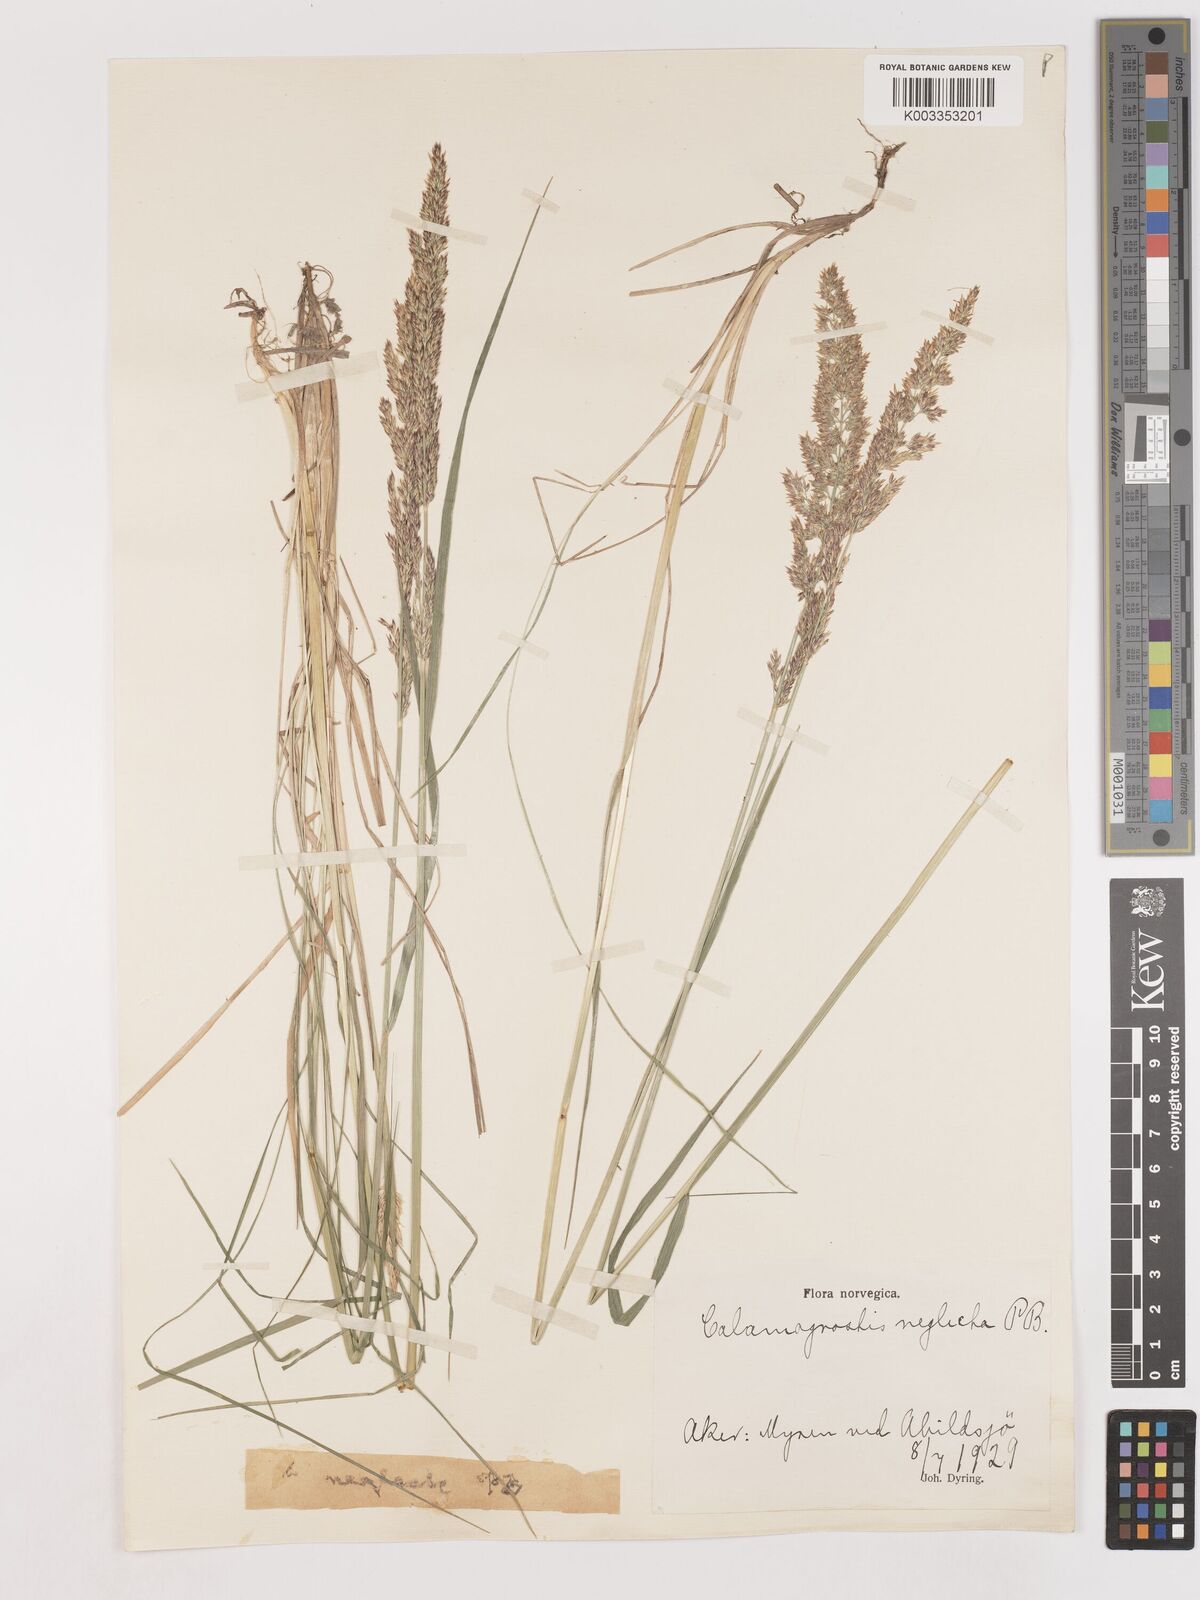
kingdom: Plantae
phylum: Tracheophyta
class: Liliopsida
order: Poales
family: Poaceae
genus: Cinnagrostis
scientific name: Cinnagrostis recta
